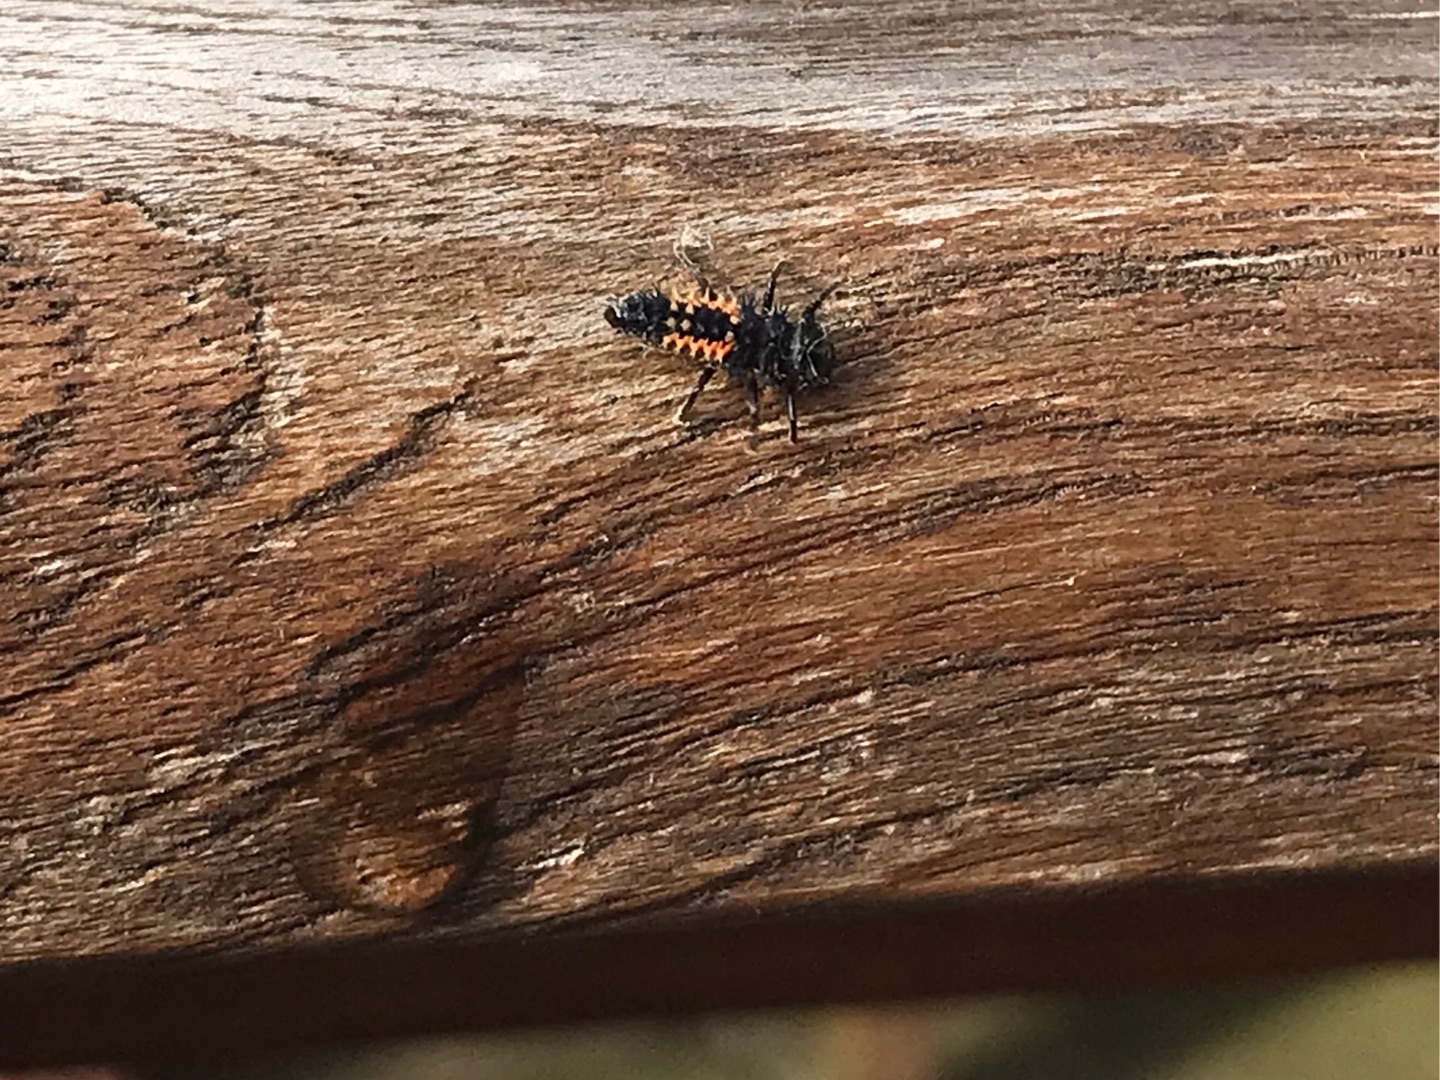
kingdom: Animalia
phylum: Arthropoda
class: Insecta
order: Coleoptera
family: Coccinellidae
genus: Harmonia
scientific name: Harmonia axyridis
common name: Harlekinmariehøne
